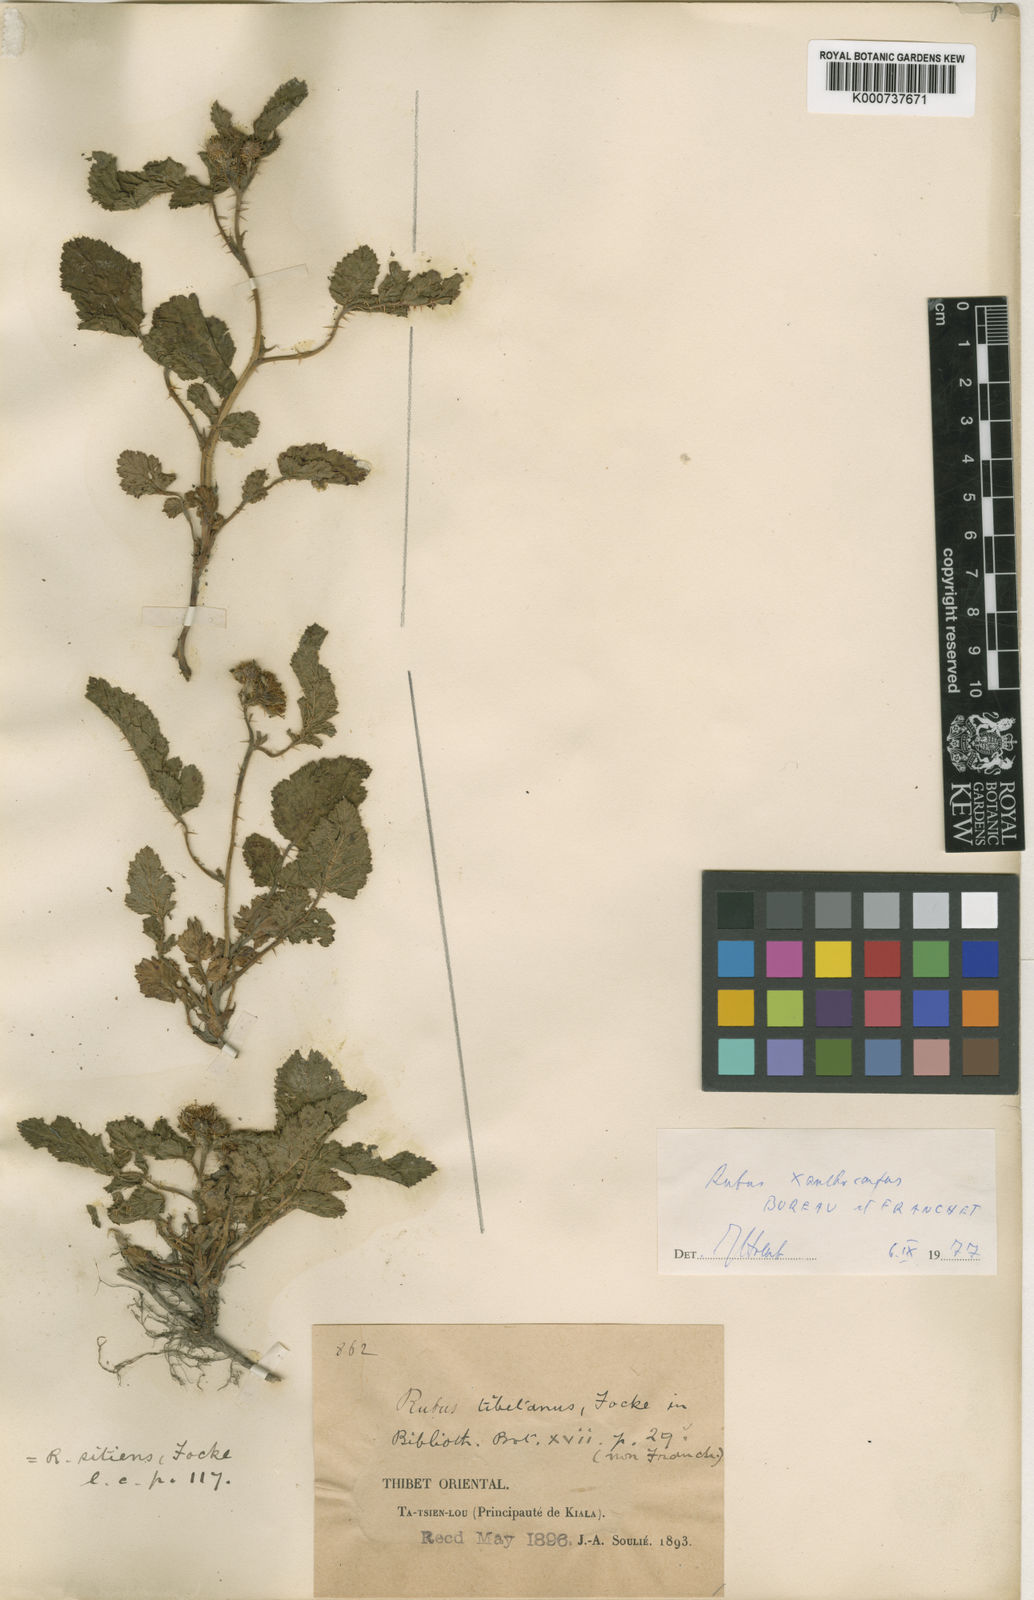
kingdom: Plantae
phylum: Tracheophyta
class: Magnoliopsida
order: Rosales
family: Rosaceae
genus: Rubus
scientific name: Rubus xanthocarpus
